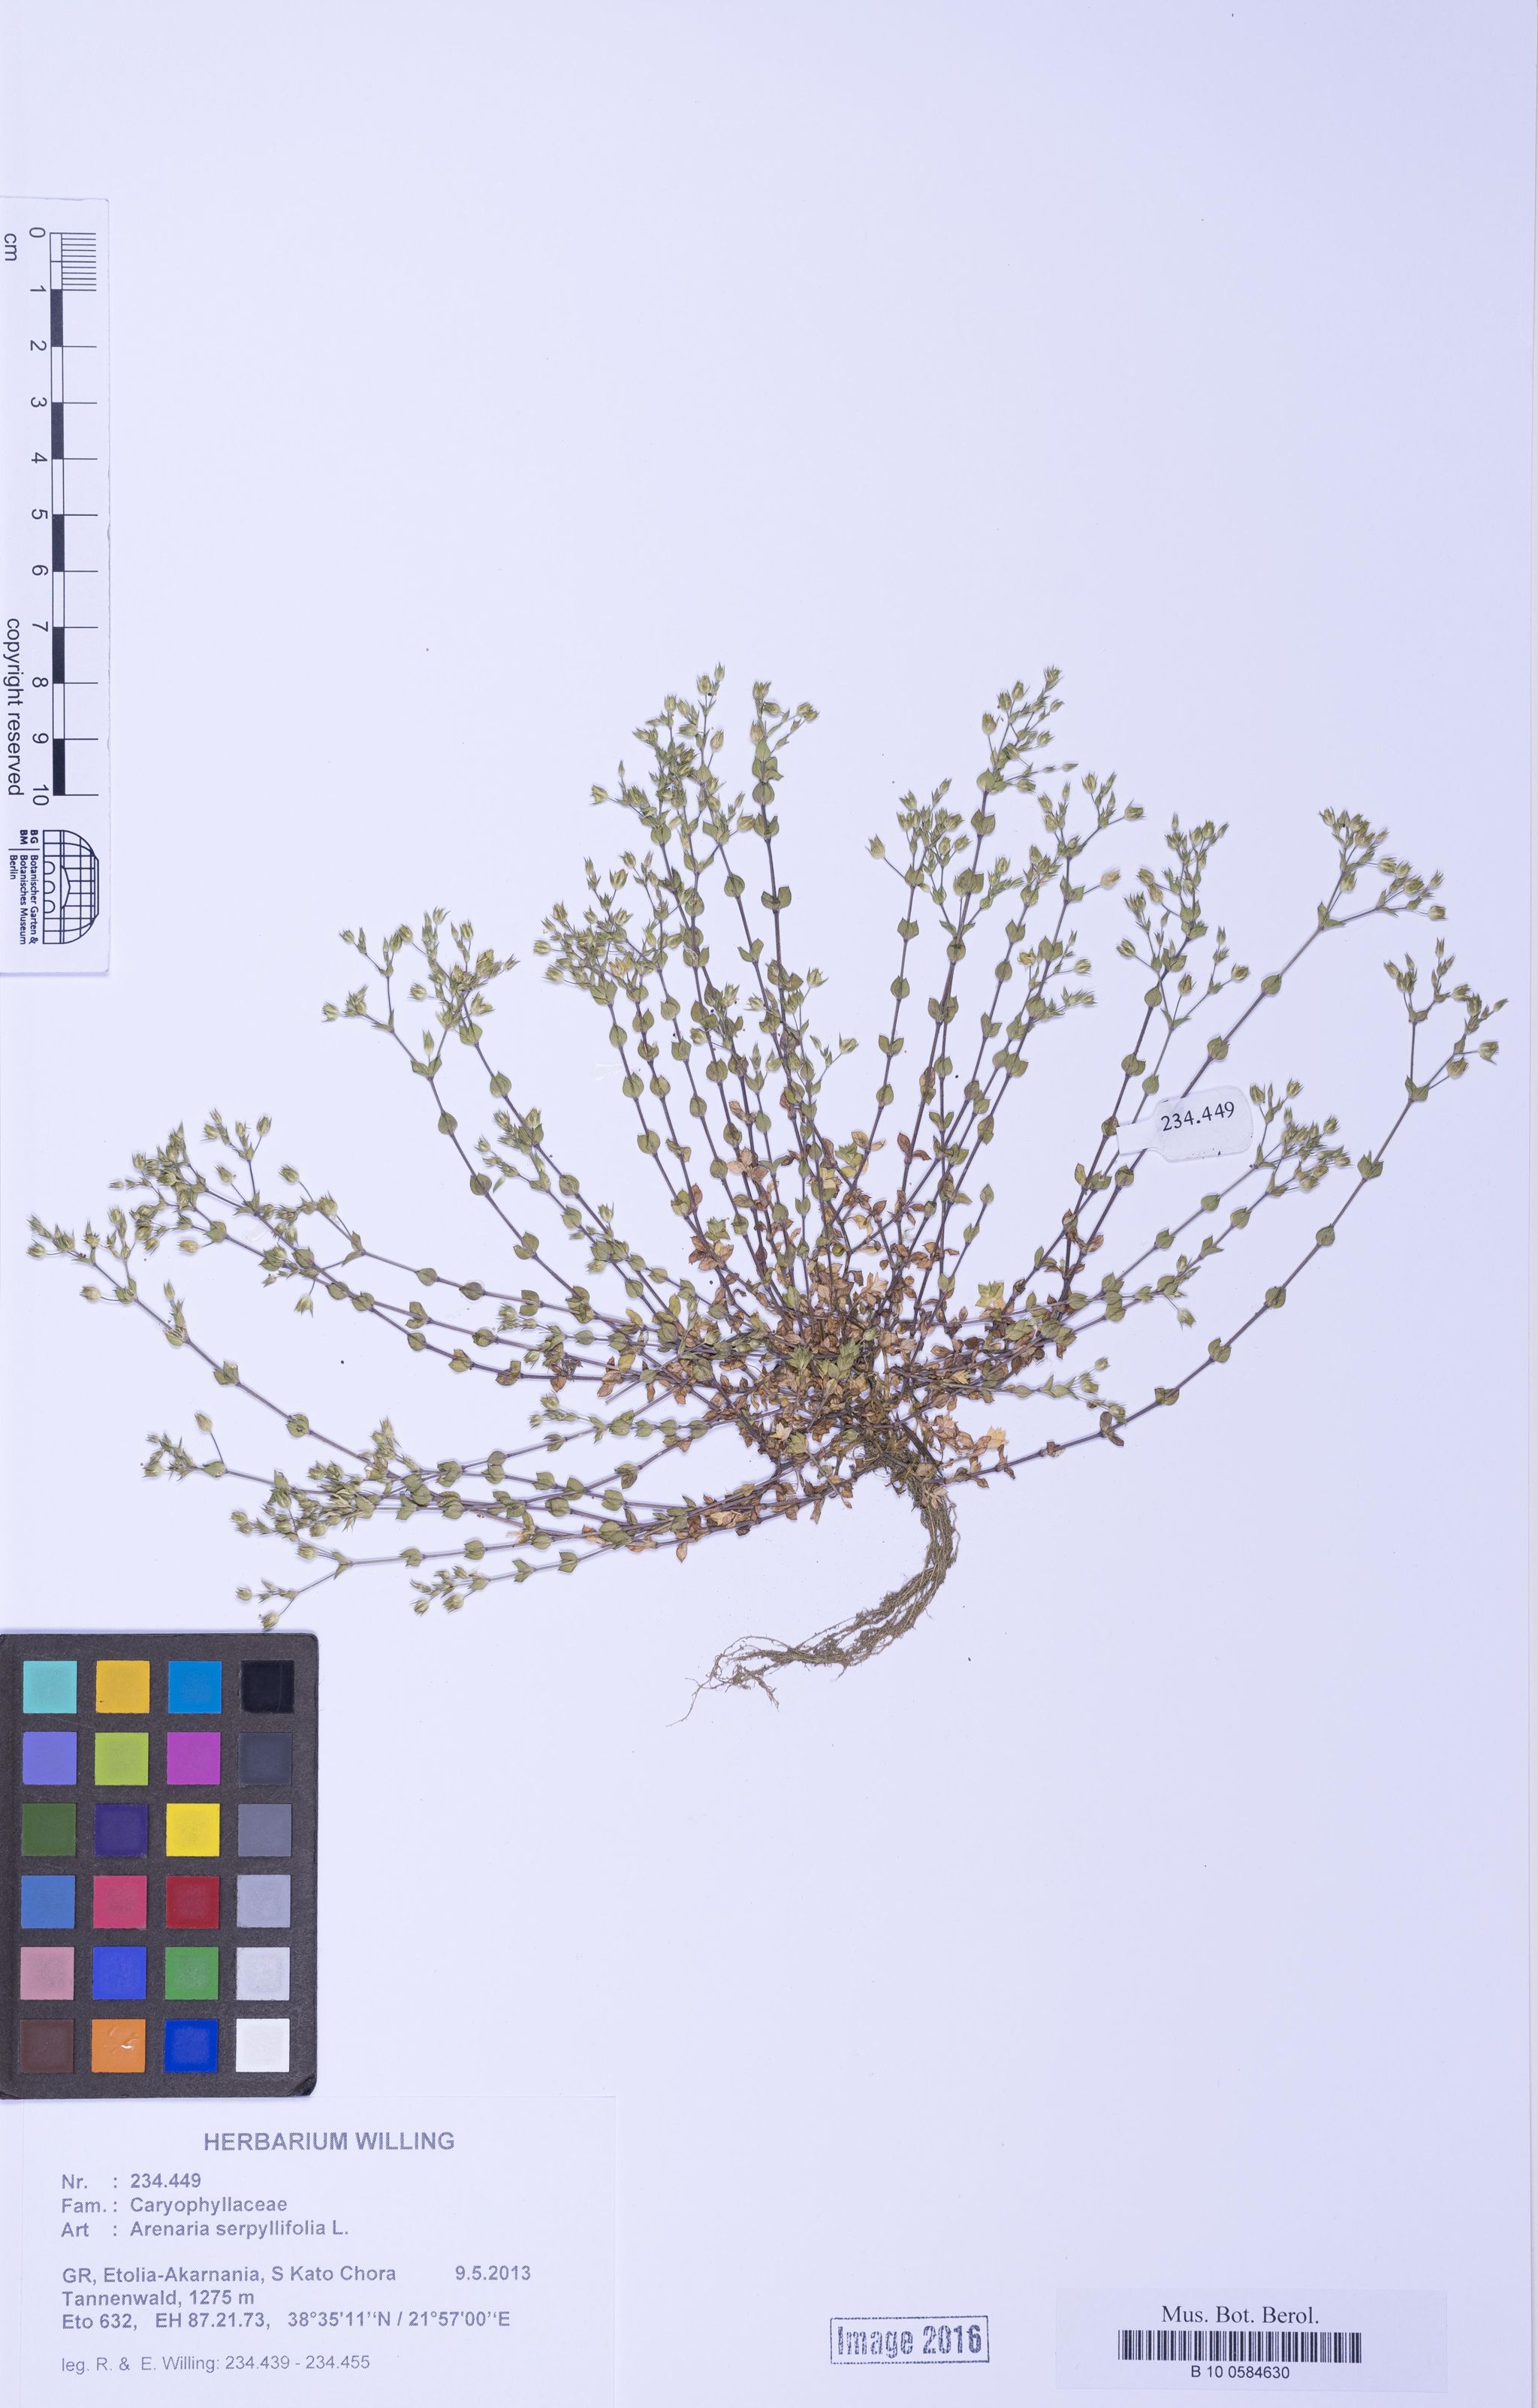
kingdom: Plantae
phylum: Tracheophyta
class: Magnoliopsida
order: Caryophyllales
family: Caryophyllaceae
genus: Arenaria
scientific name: Arenaria serpyllifolia
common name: Thyme-leaved sandwort
